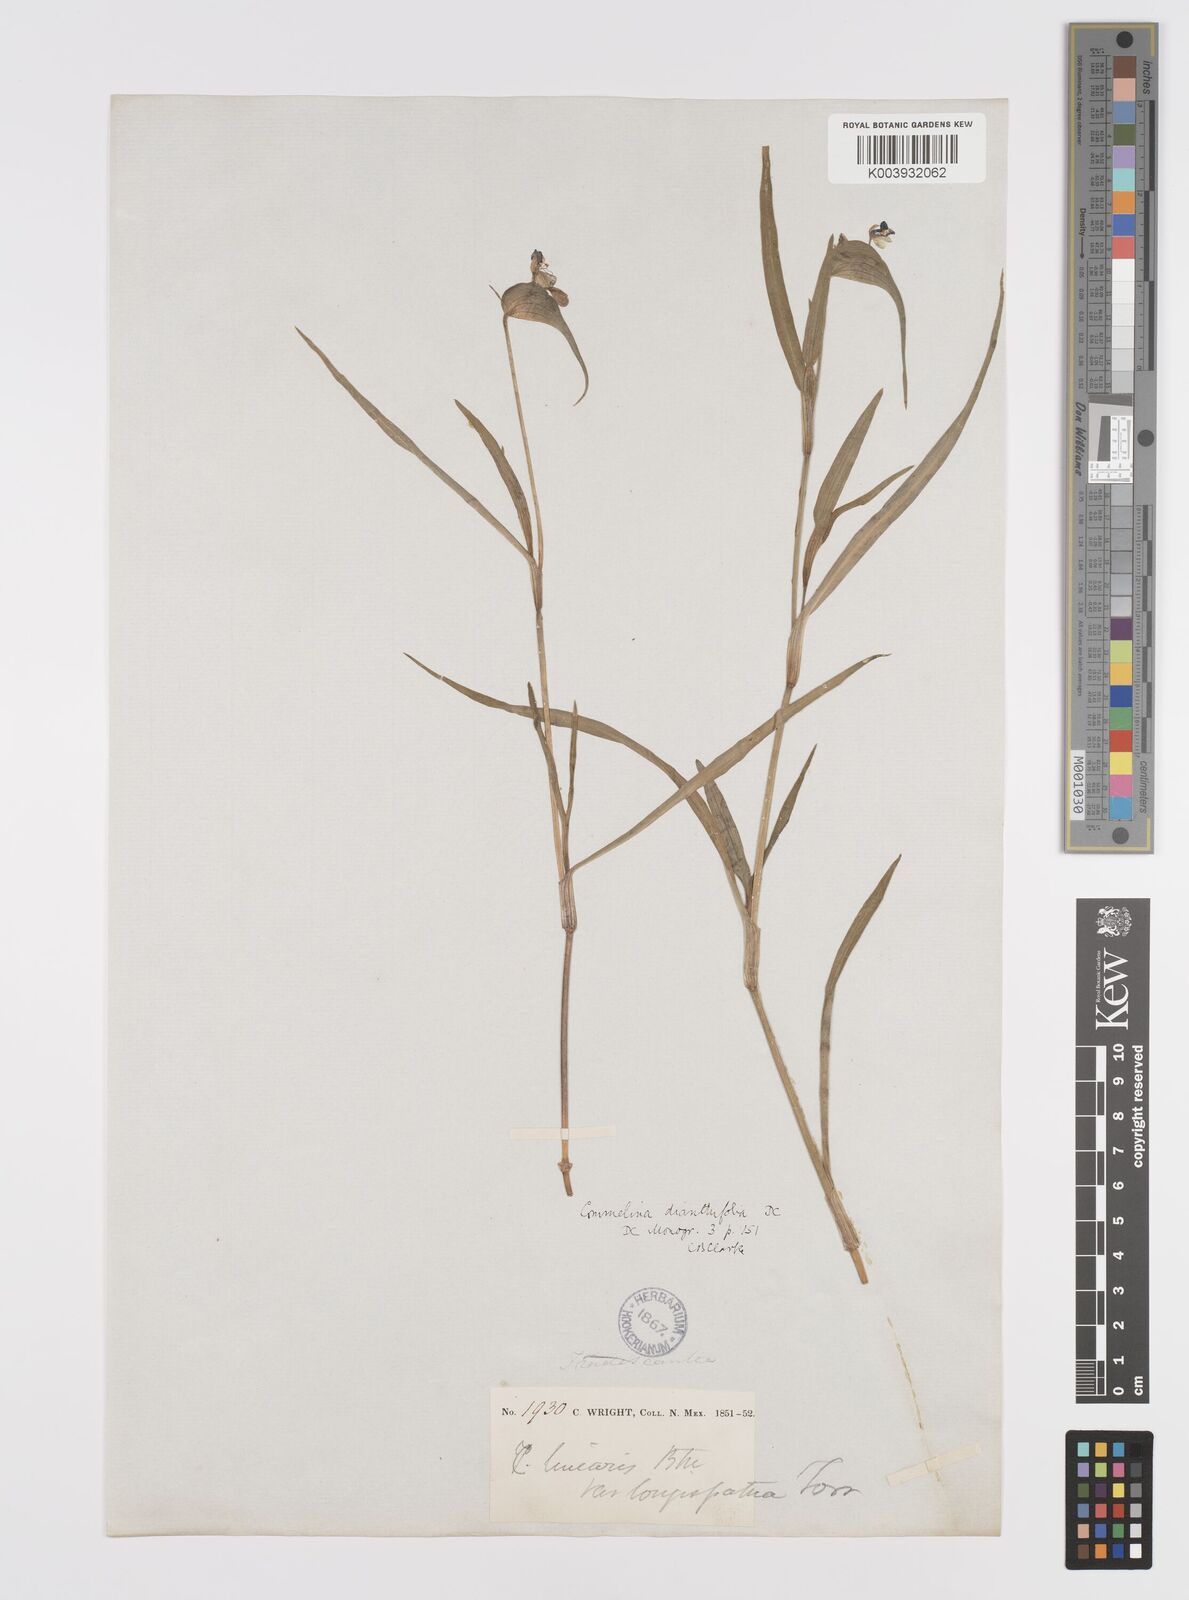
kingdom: Plantae
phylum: Tracheophyta
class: Liliopsida
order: Commelinales
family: Commelinaceae
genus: Commelina
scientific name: Commelina dianthifolia
